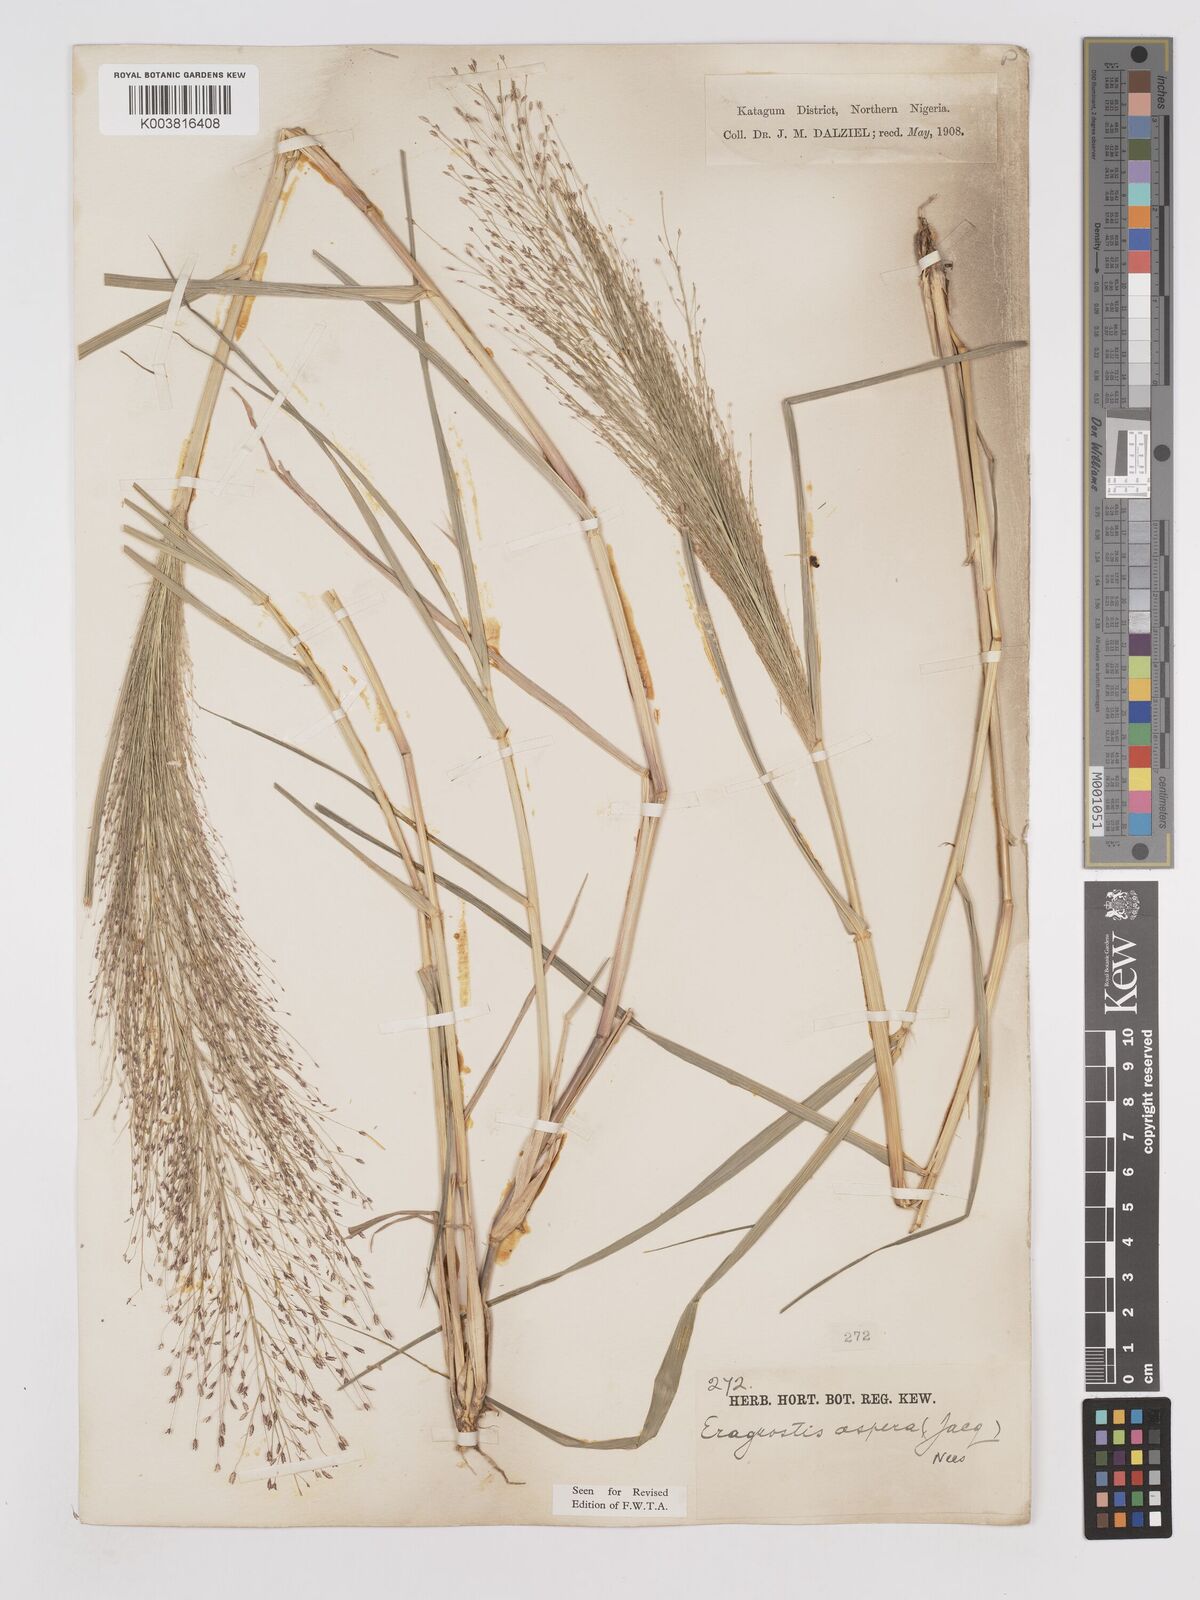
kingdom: Plantae
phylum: Tracheophyta
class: Liliopsida
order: Poales
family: Poaceae
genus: Eragrostis
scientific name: Eragrostis aspera
